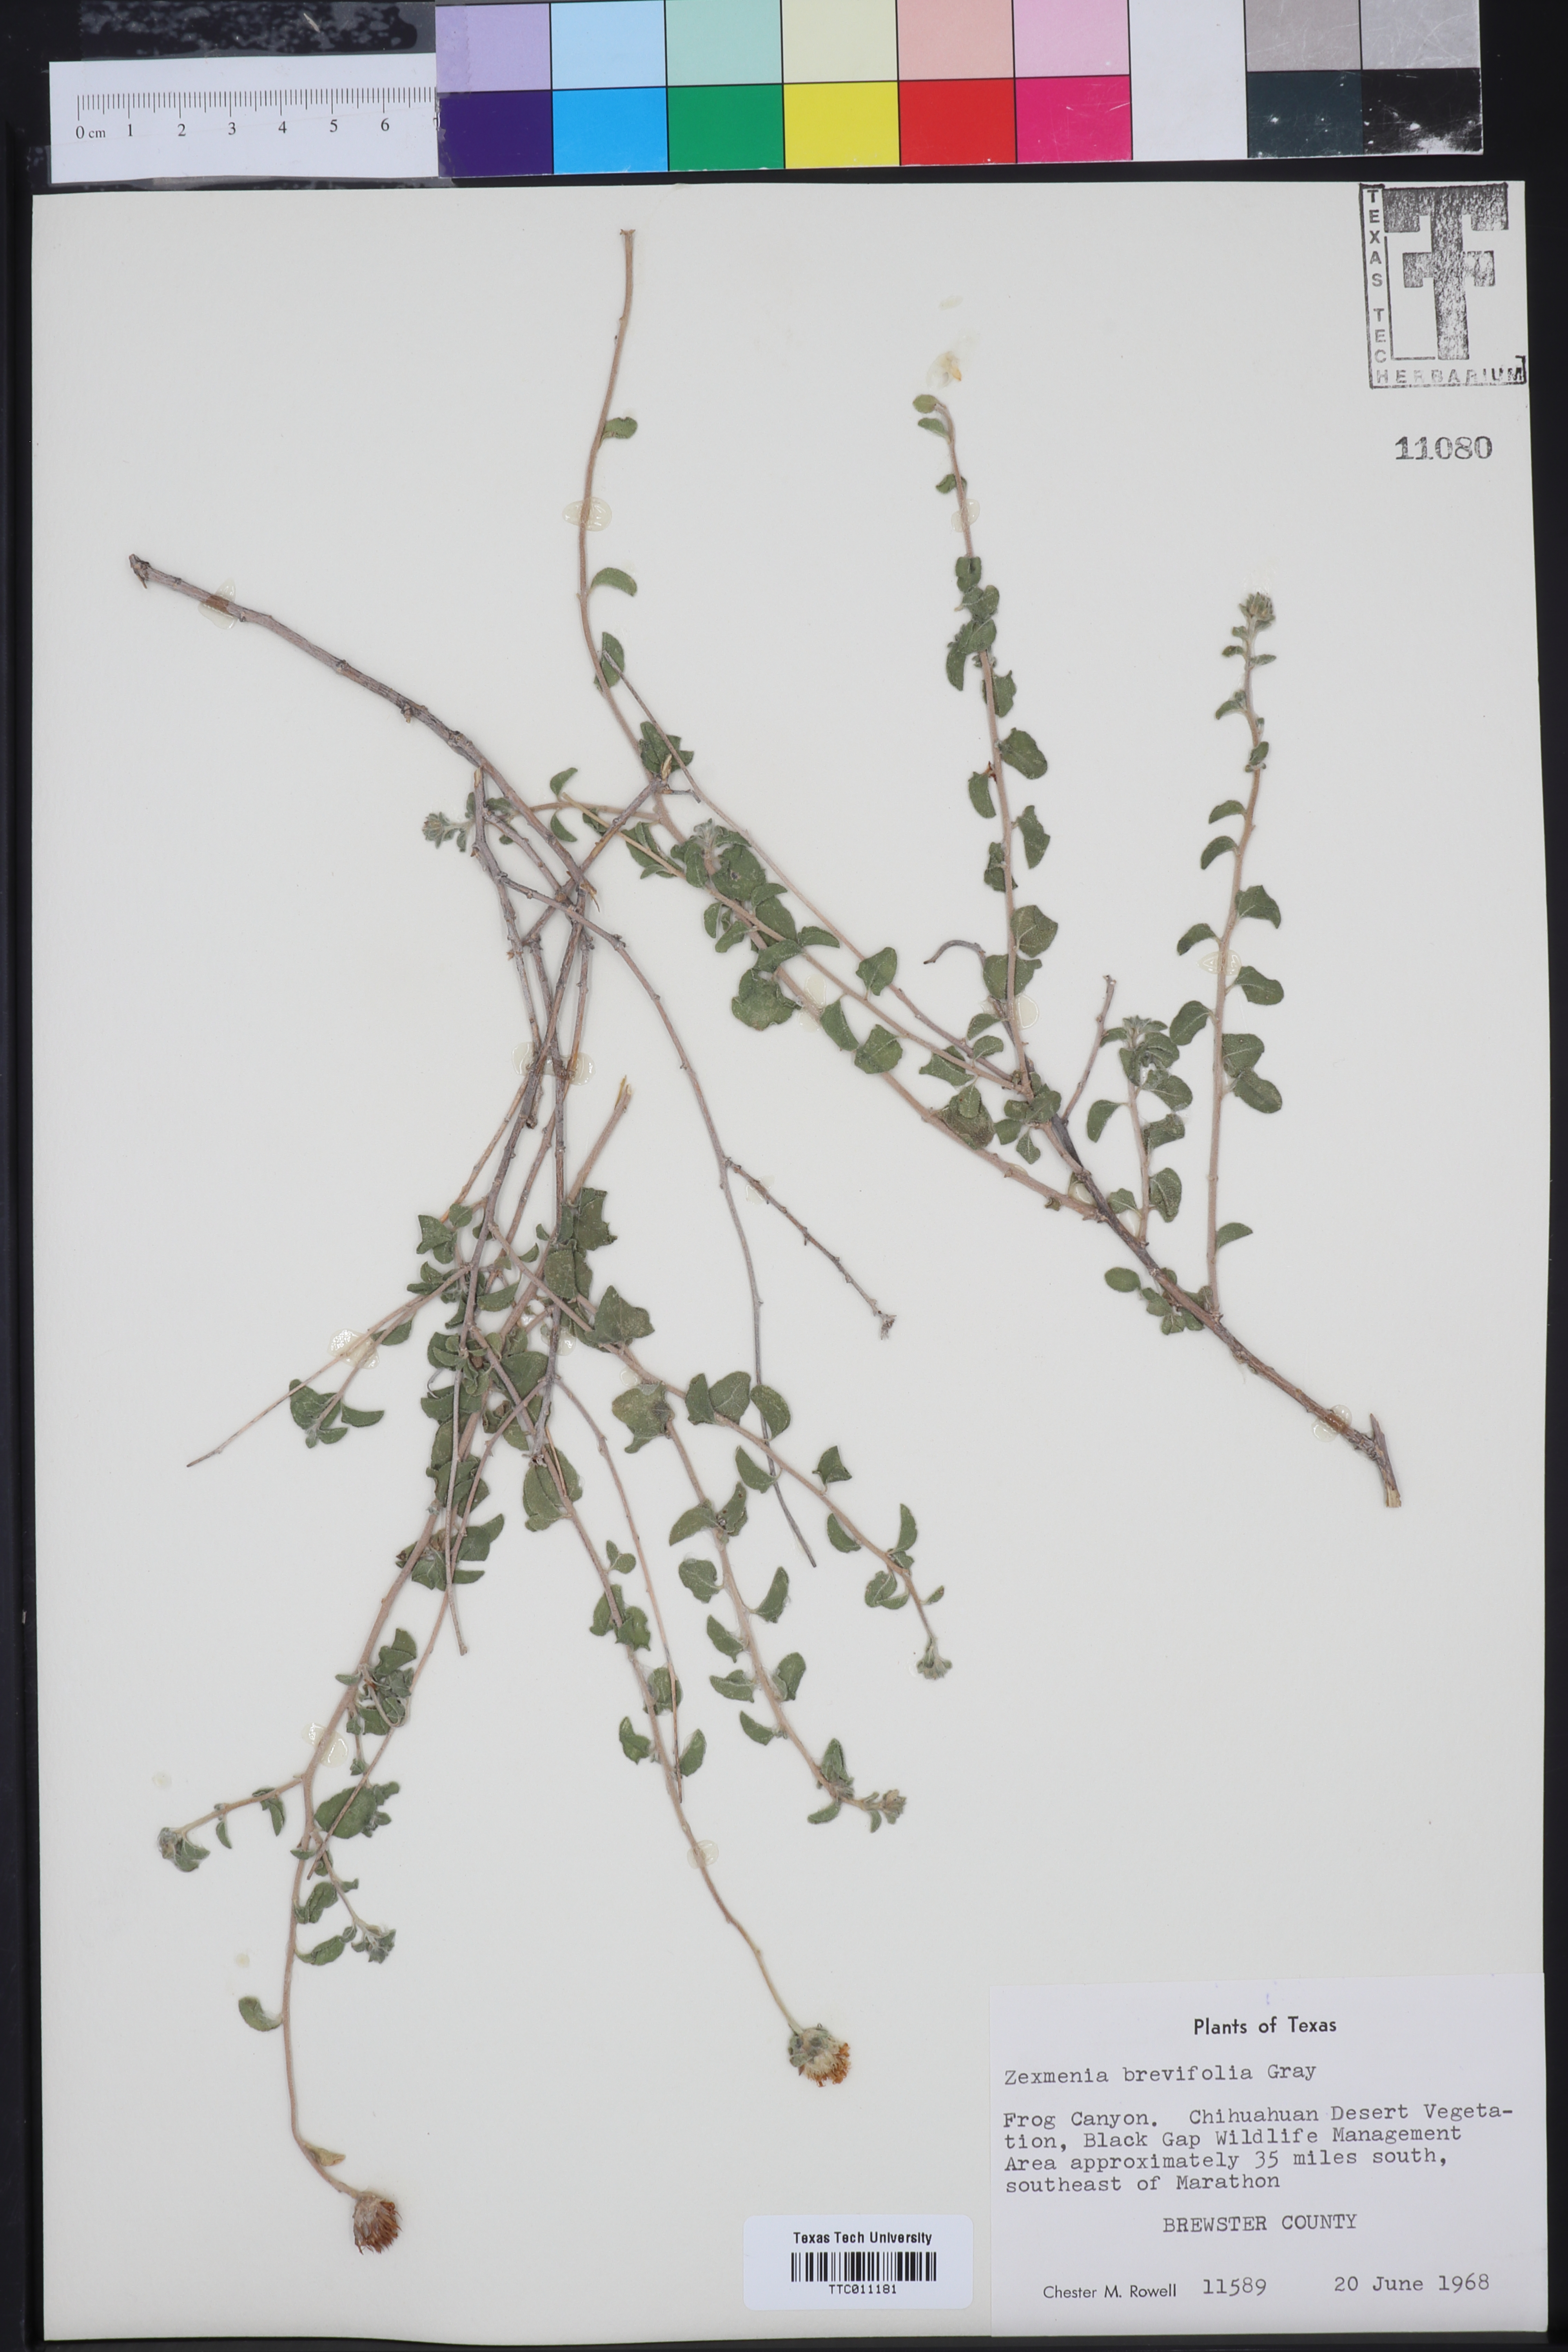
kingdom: Plantae
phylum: Tracheophyta
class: Magnoliopsida
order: Asterales
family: Asteraceae
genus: Jefea
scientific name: Jefea brevifolia
